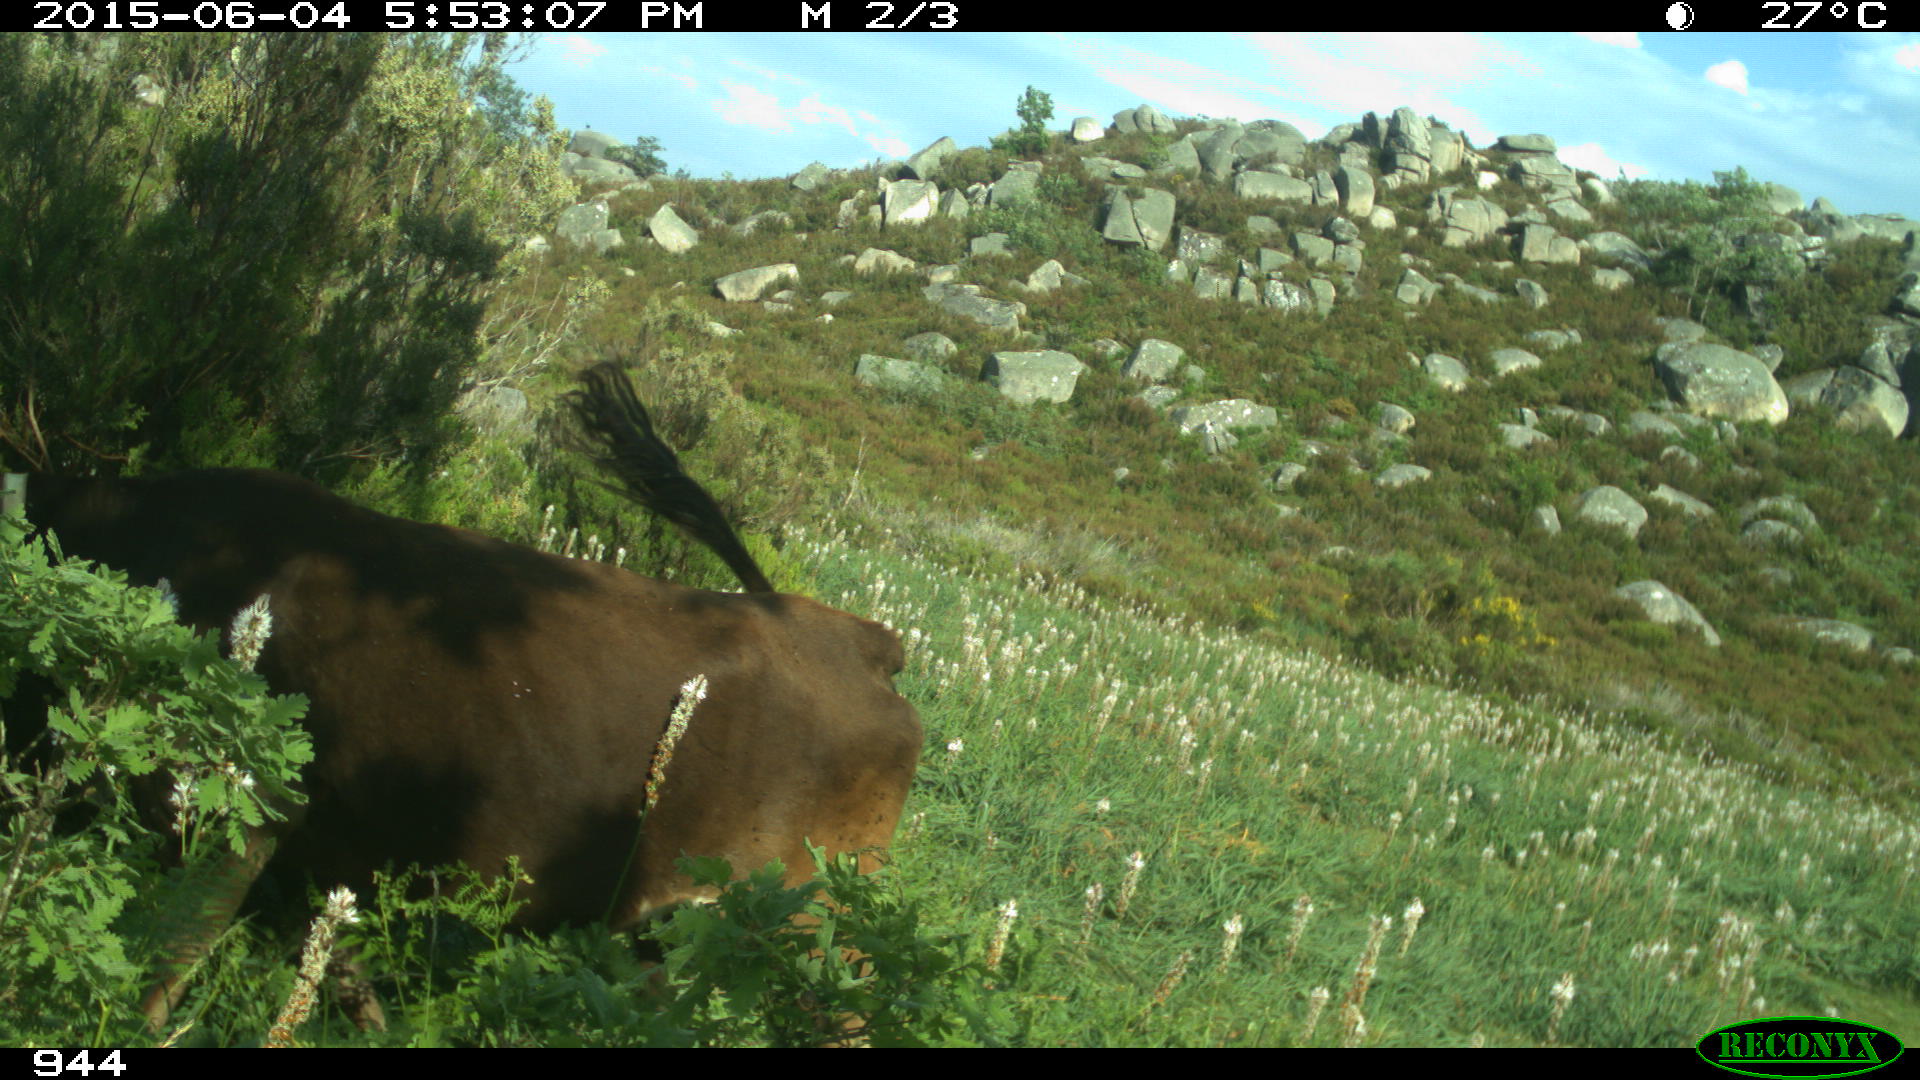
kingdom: Animalia
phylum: Chordata
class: Mammalia
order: Artiodactyla
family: Bovidae
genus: Bos
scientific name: Bos taurus
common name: Domesticated cattle
